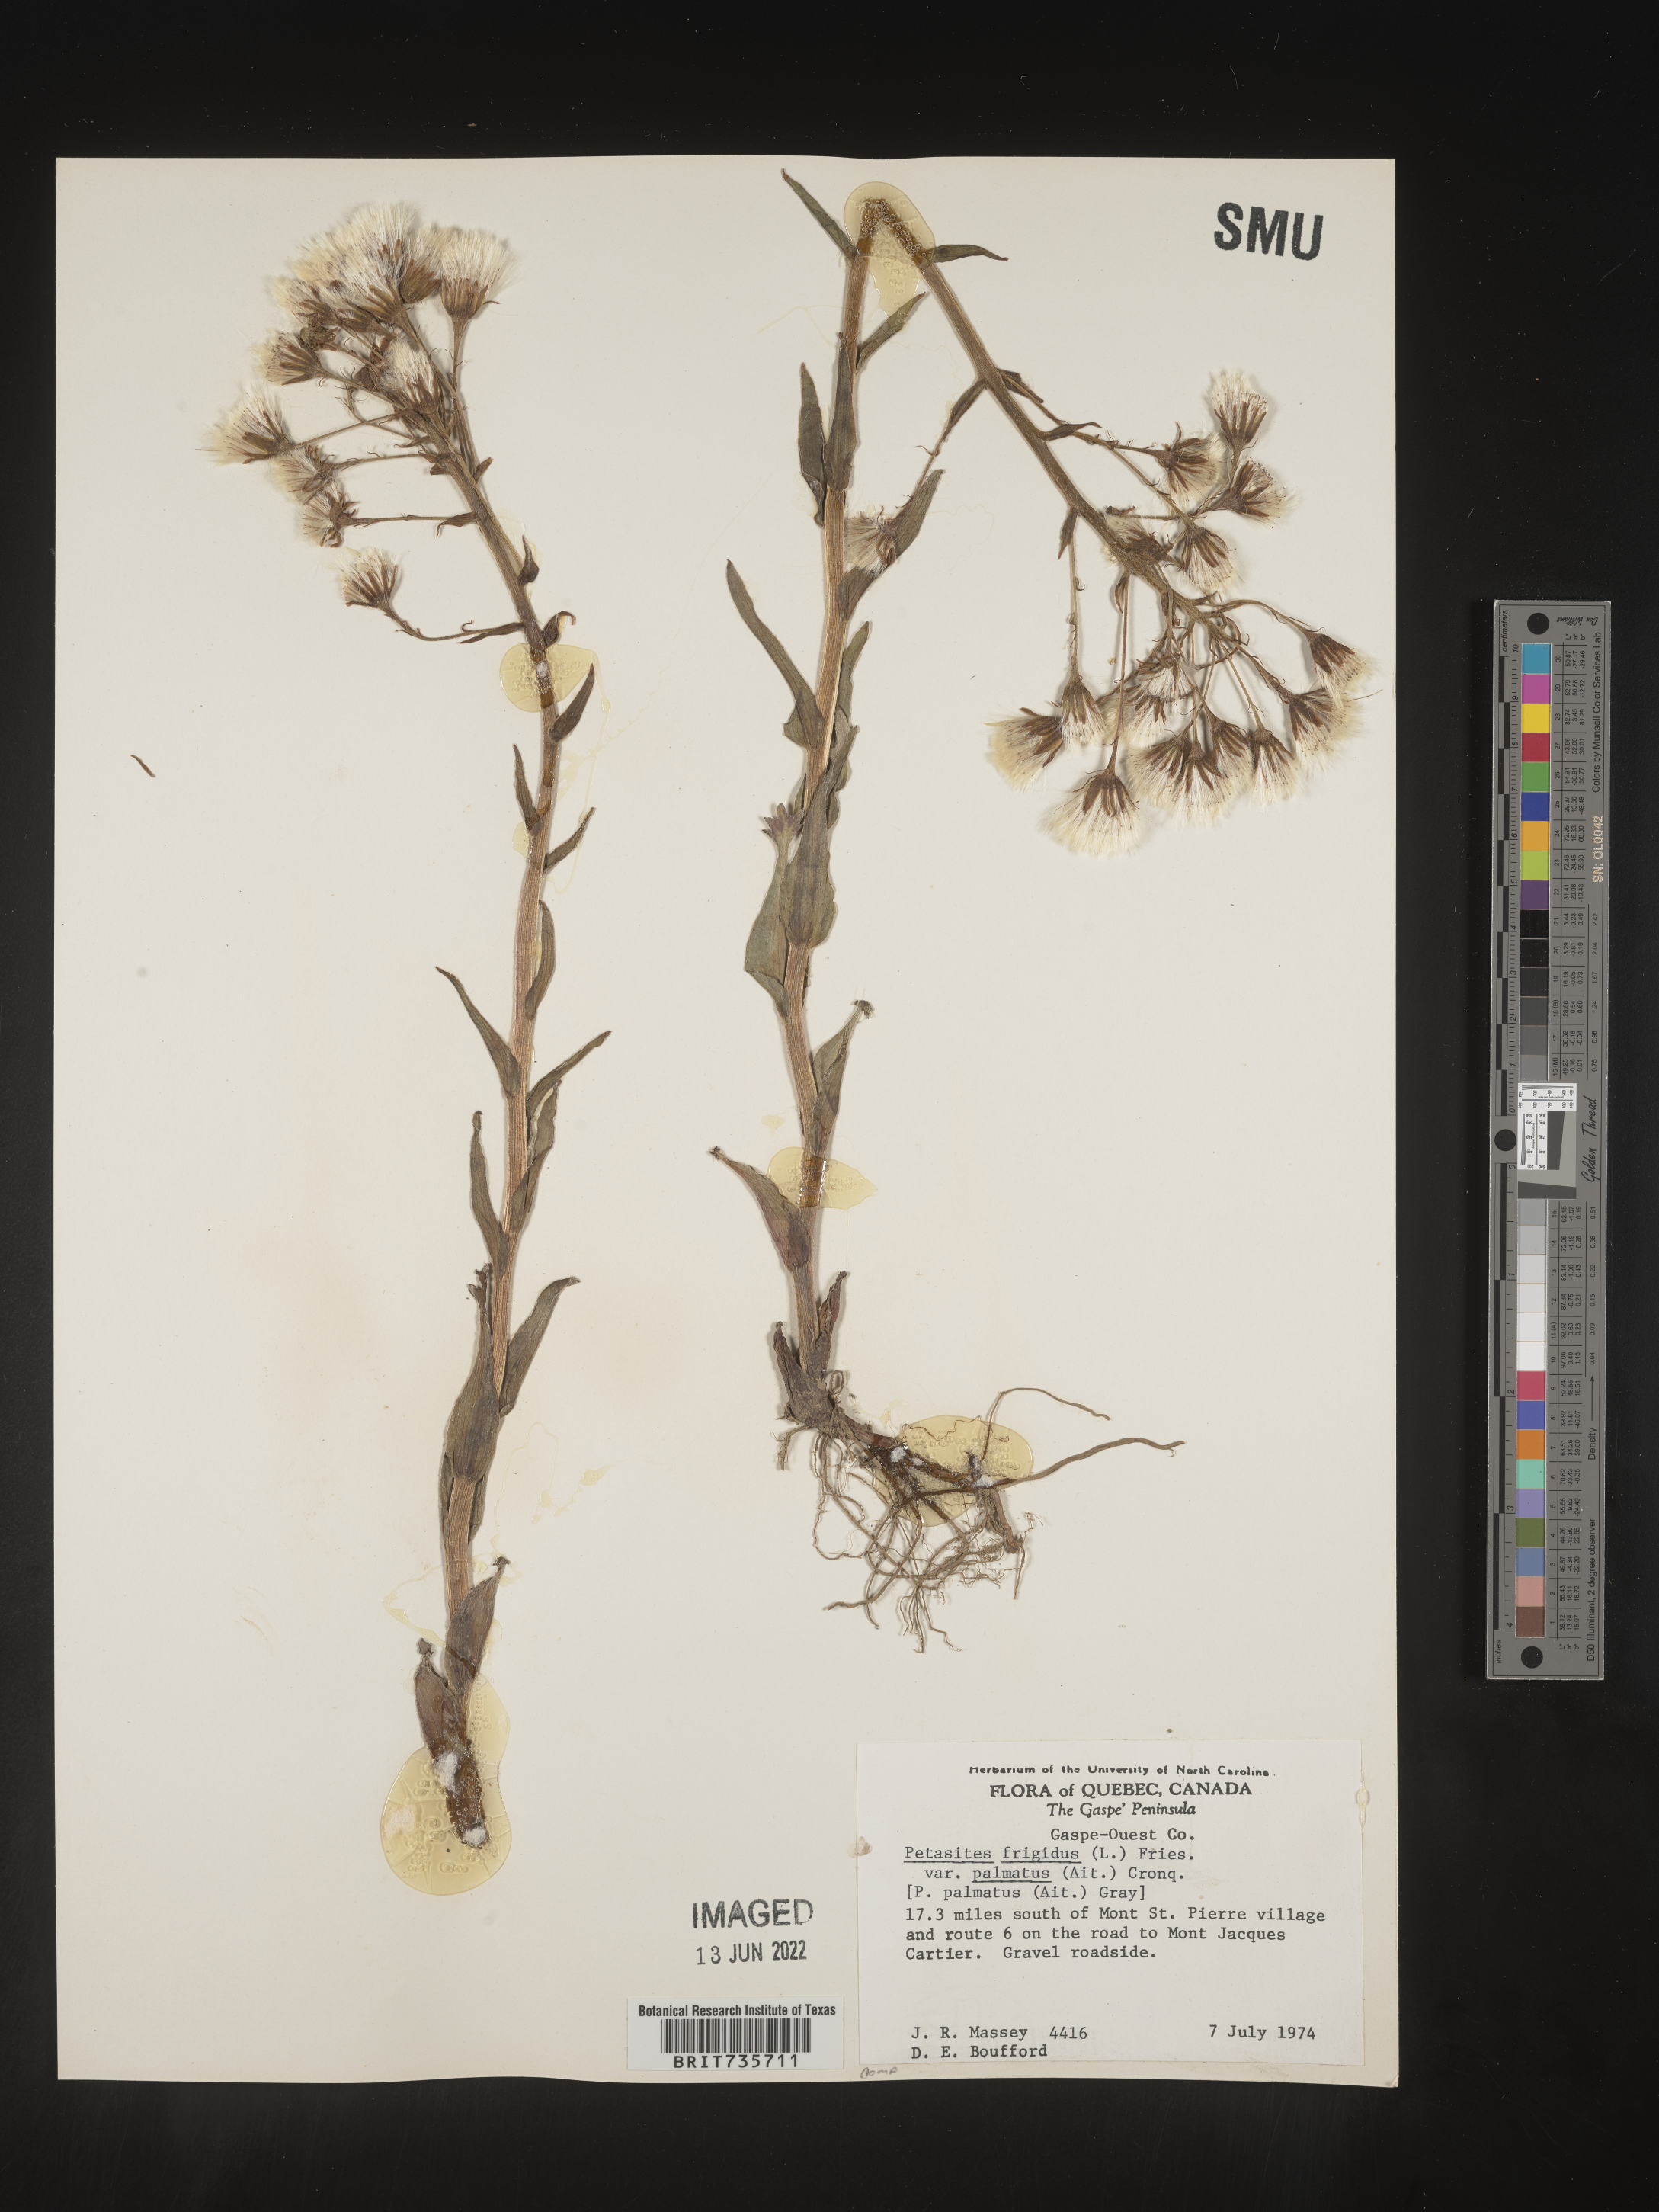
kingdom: Plantae
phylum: Tracheophyta
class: Magnoliopsida
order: Asterales
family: Asteraceae
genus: Petasites
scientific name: Petasites frigidus
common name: Arctic butterbur
